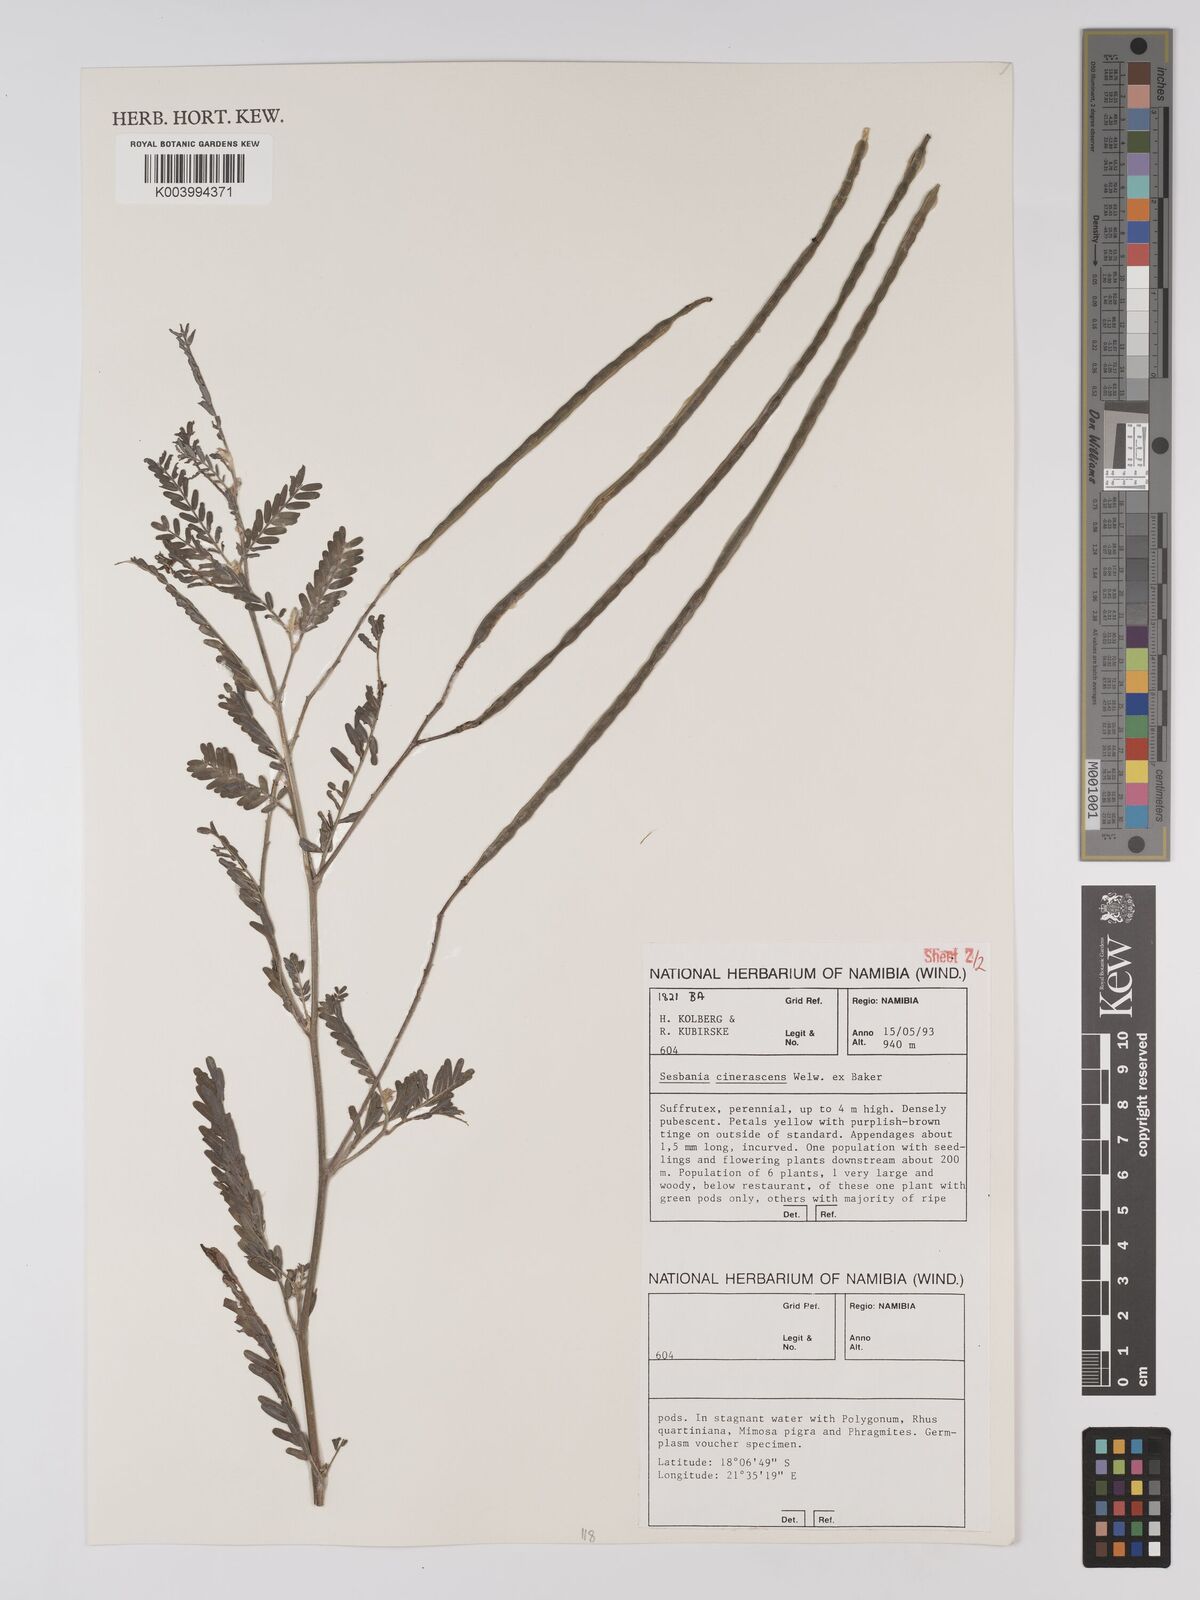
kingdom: Plantae
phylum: Tracheophyta
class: Magnoliopsida
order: Fabales
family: Fabaceae
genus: Sesbania
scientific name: Sesbania cinerascens
